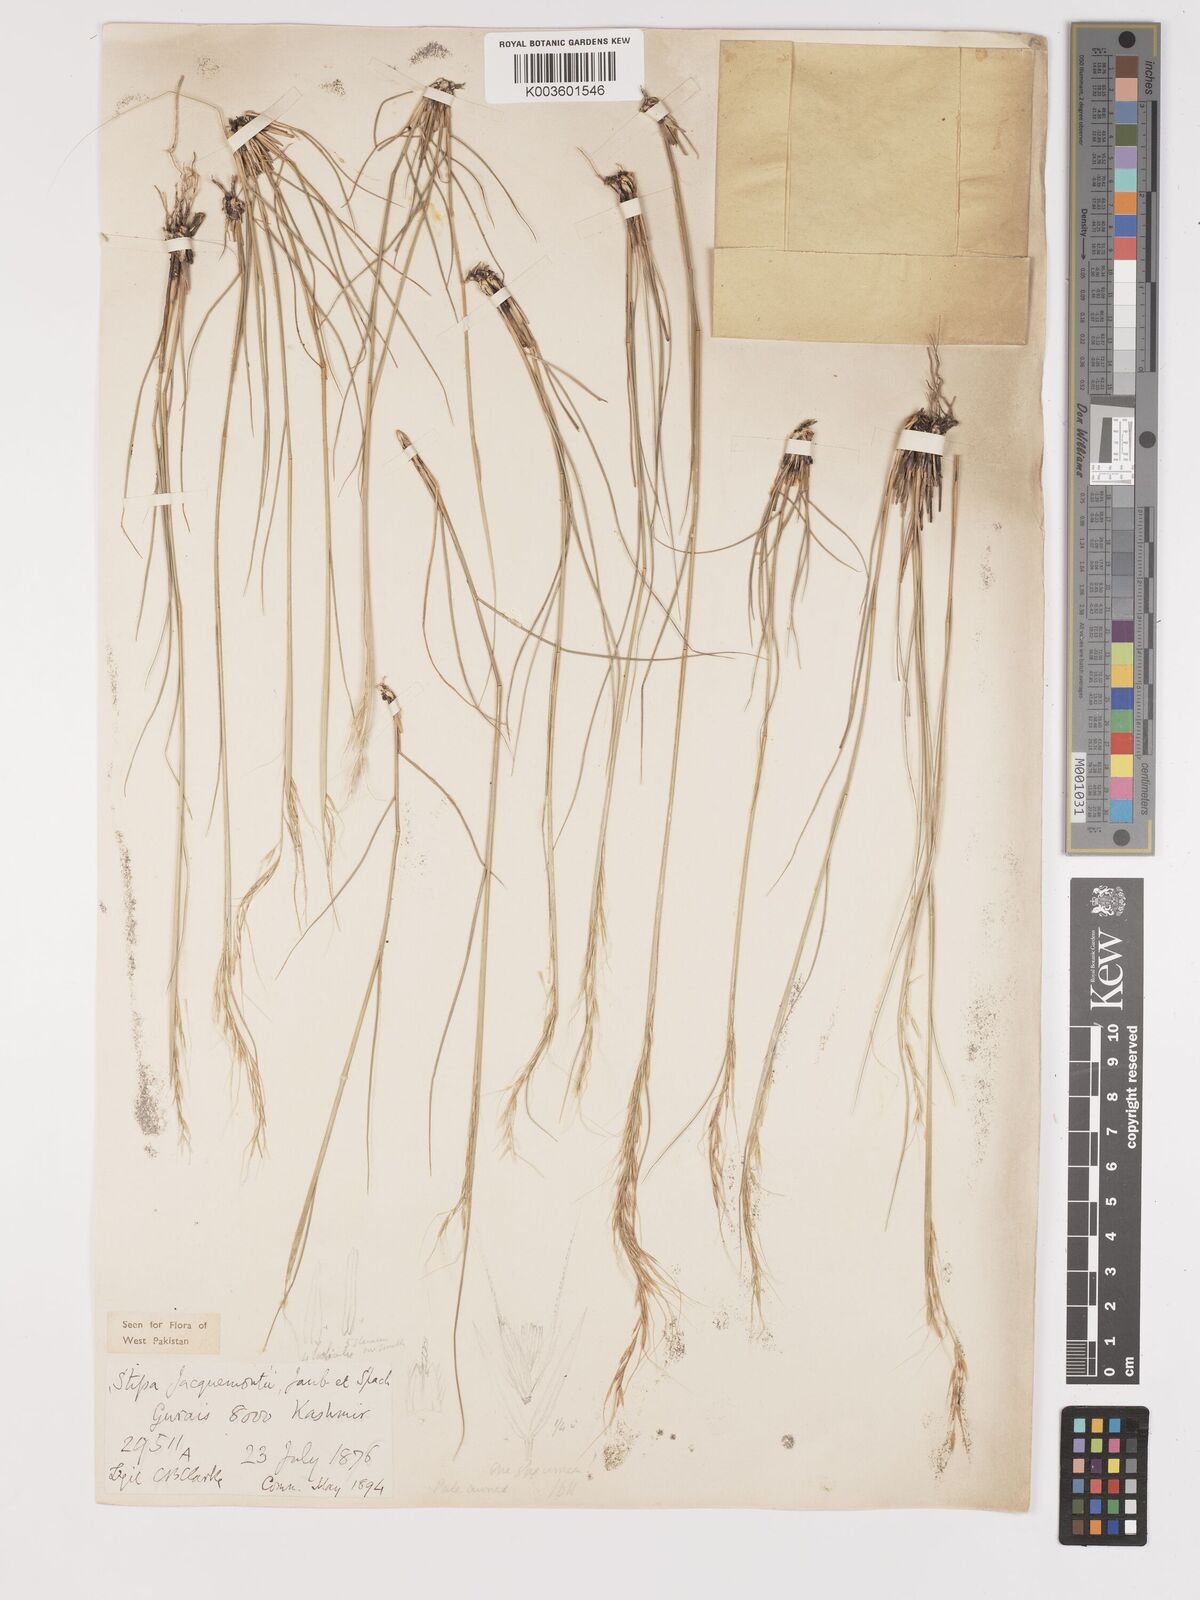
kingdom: Plantae
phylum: Tracheophyta
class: Liliopsida
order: Poales
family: Poaceae
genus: Achnatherum
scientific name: Achnatherum jacquemontii
